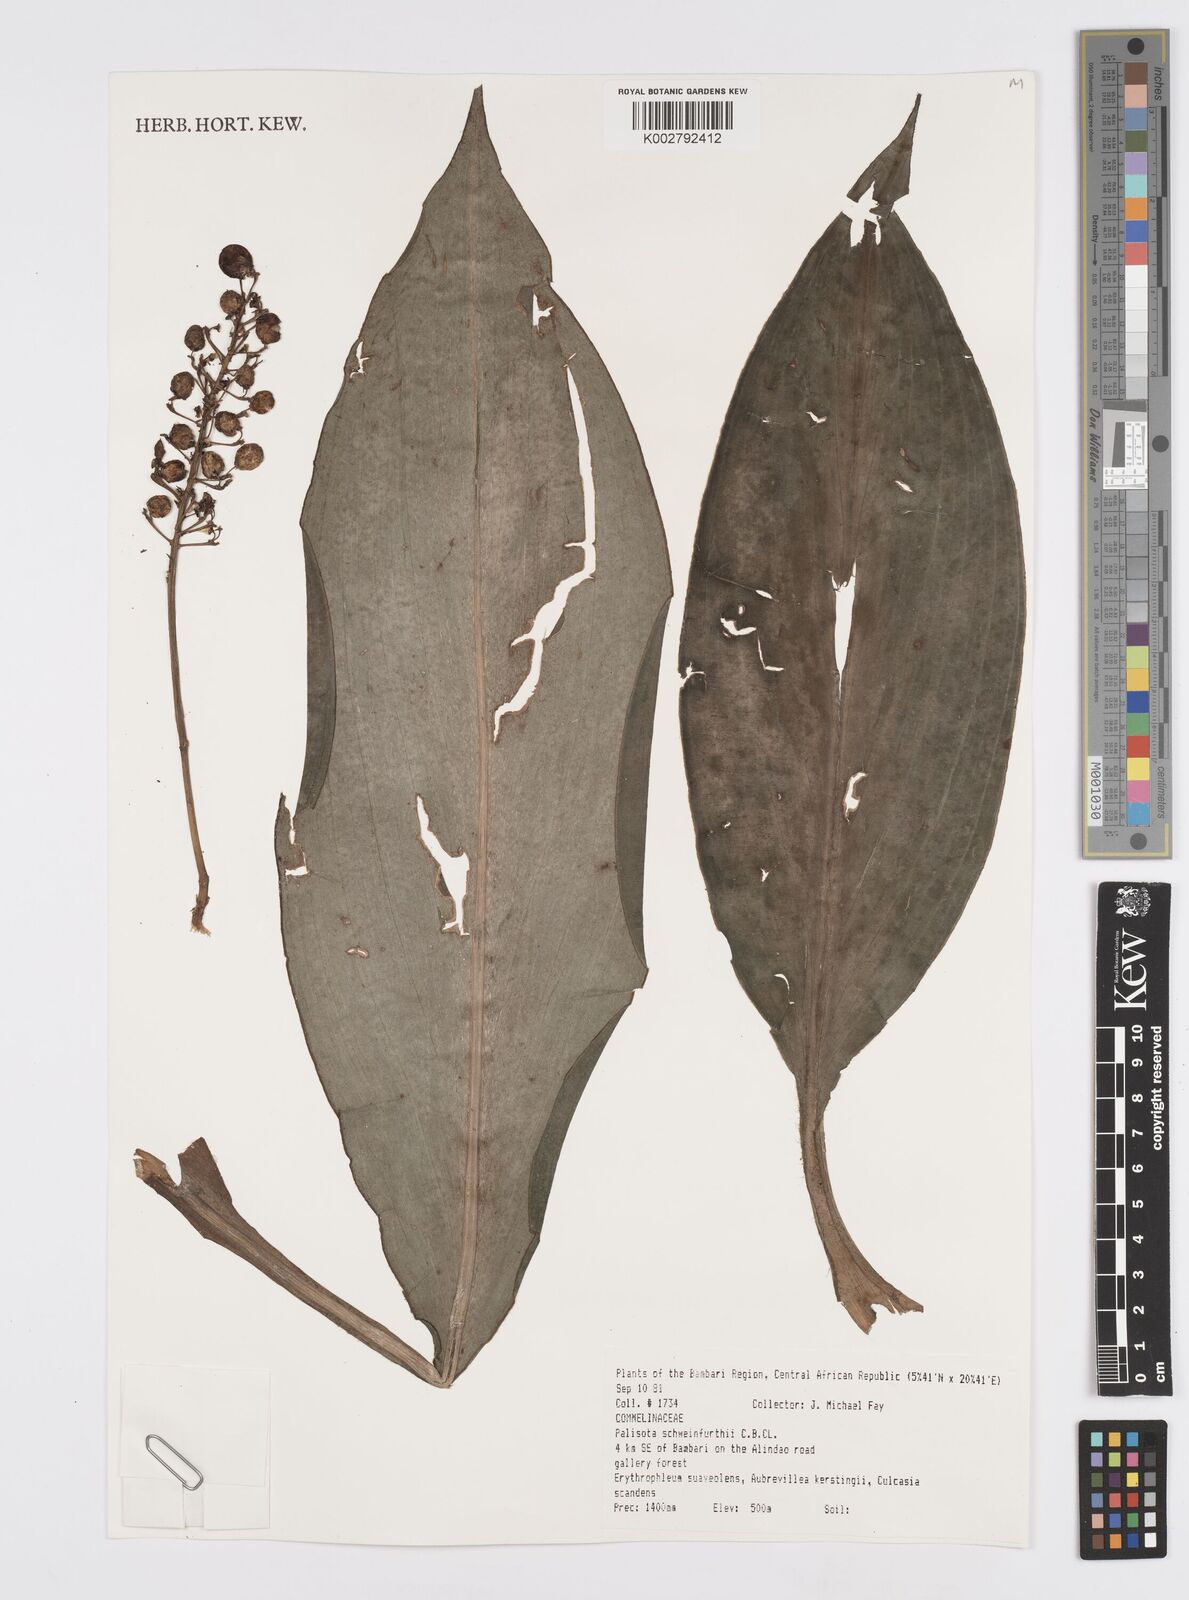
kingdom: Plantae
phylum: Tracheophyta
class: Liliopsida
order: Commelinales
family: Commelinaceae
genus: Palisota
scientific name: Palisota schweinfurthii
